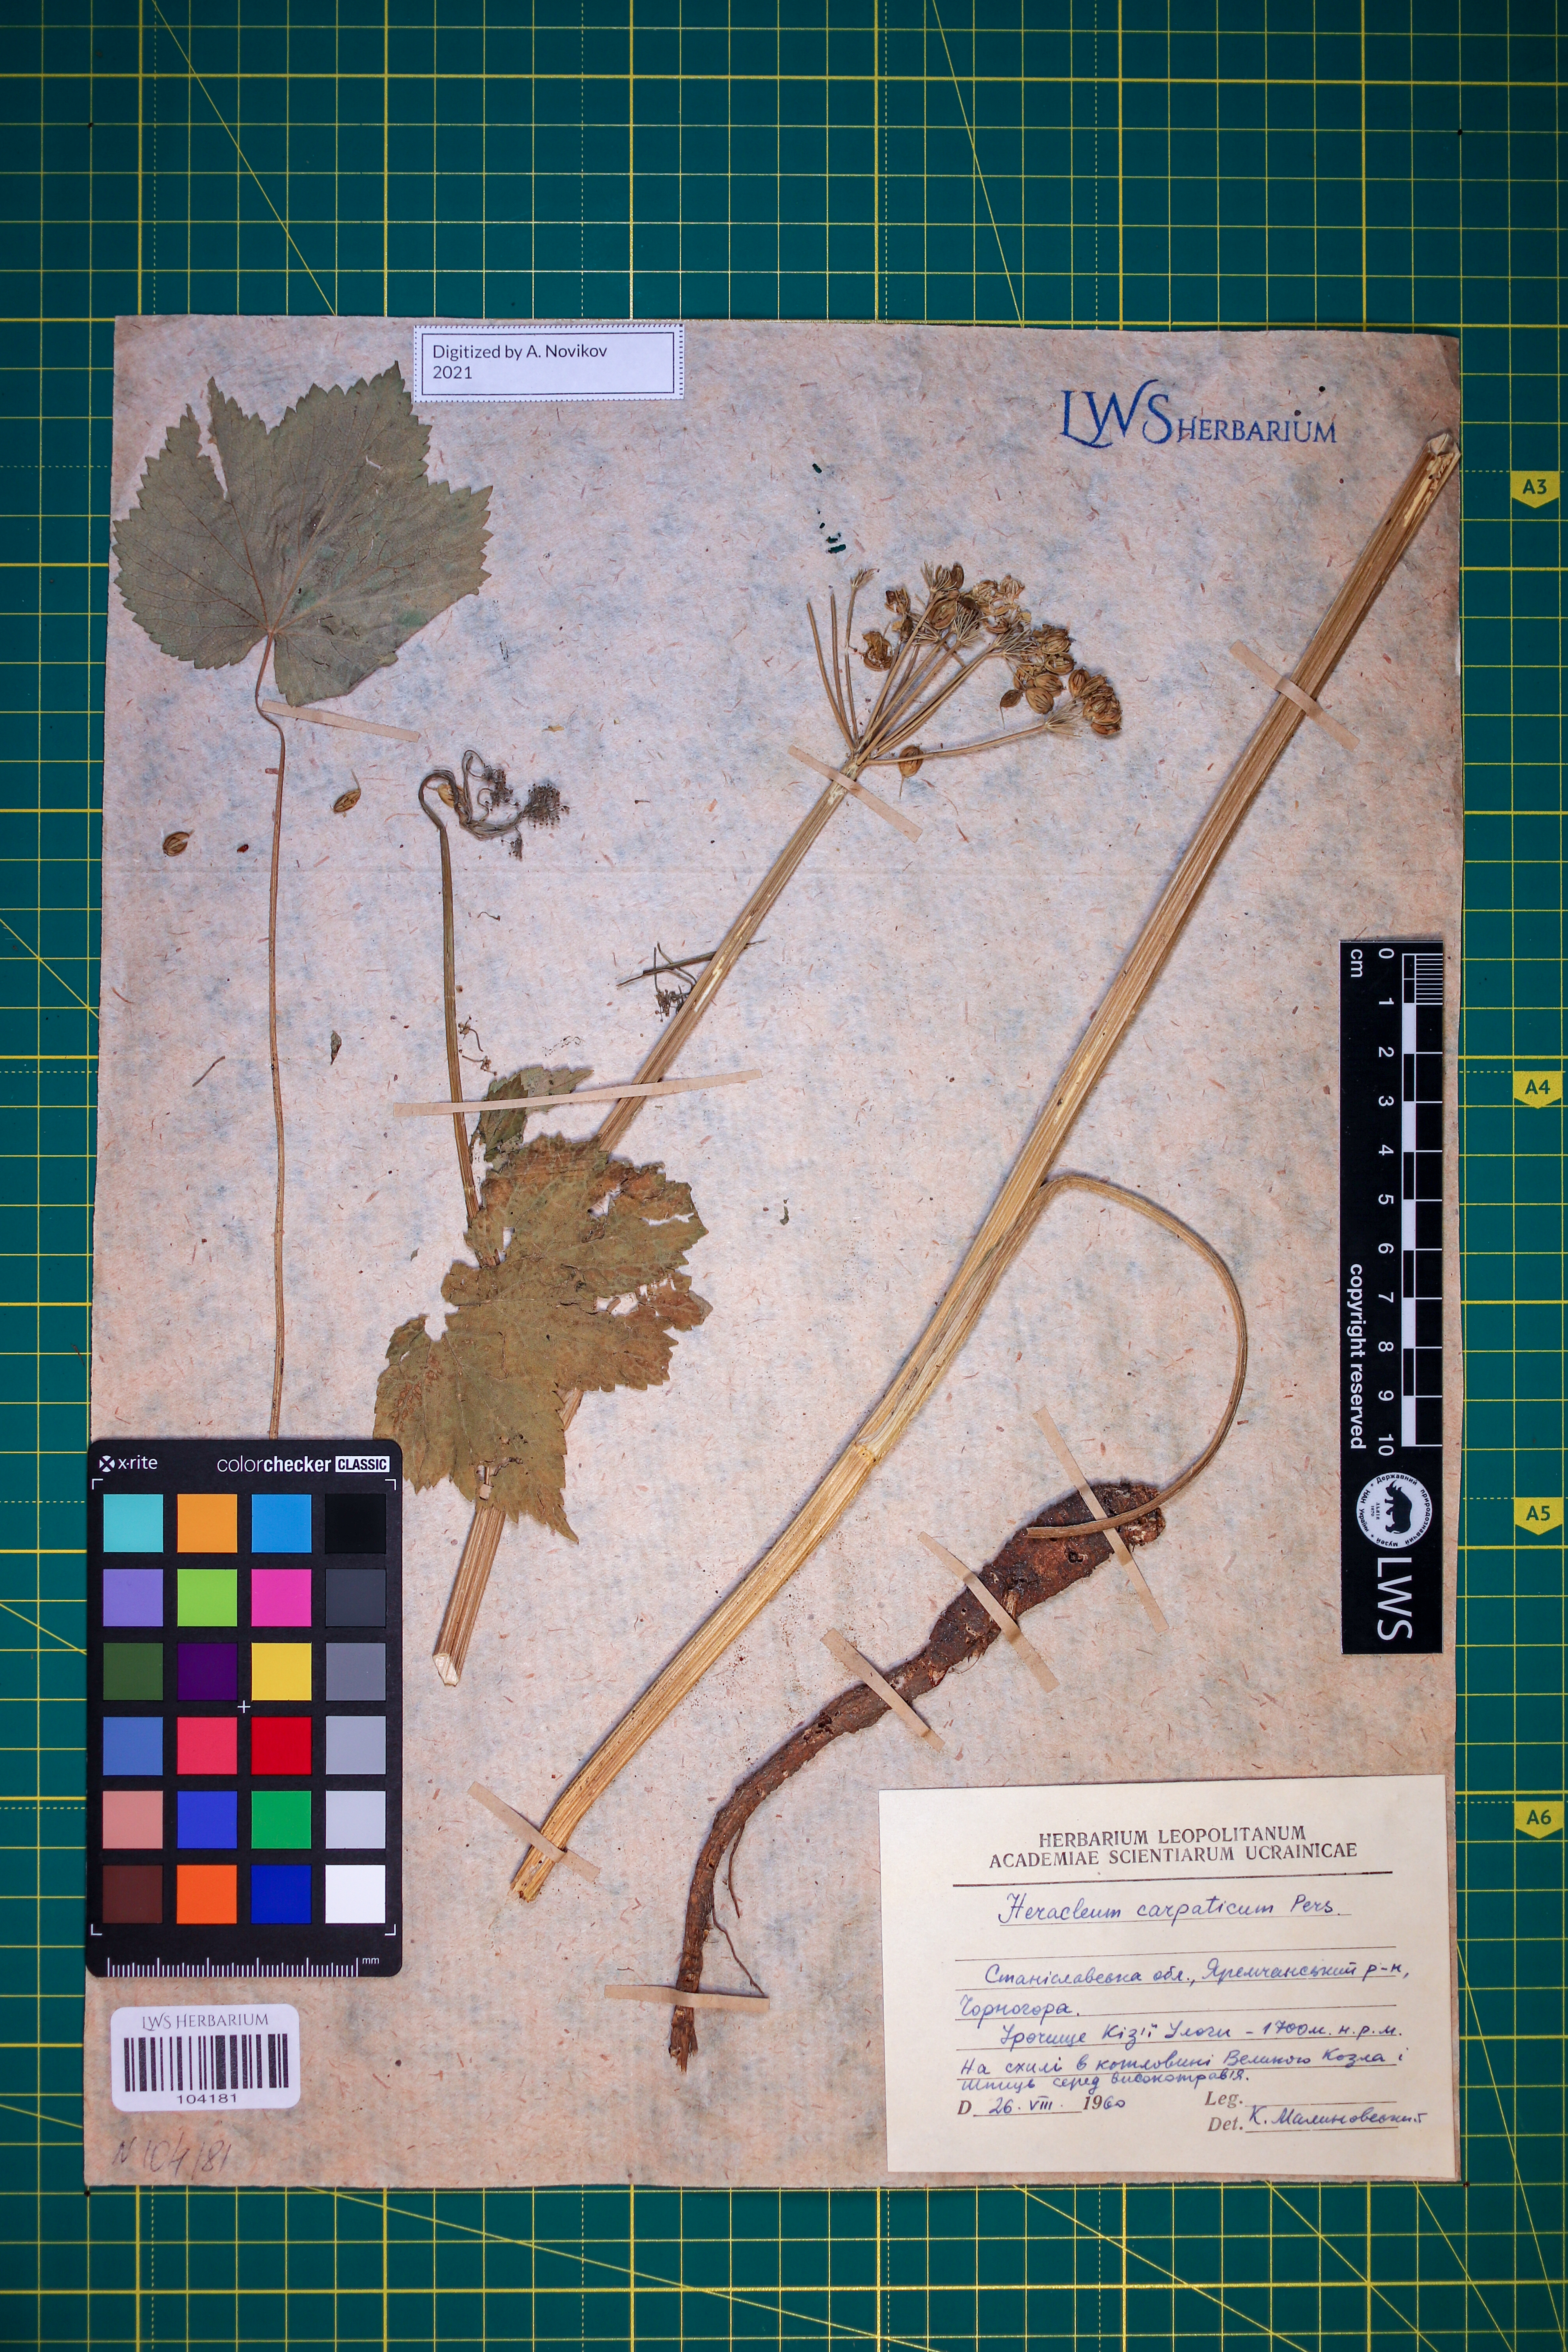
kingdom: Plantae
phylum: Tracheophyta
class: Magnoliopsida
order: Apiales
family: Apiaceae
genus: Heracleum
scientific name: Heracleum carpaticum
